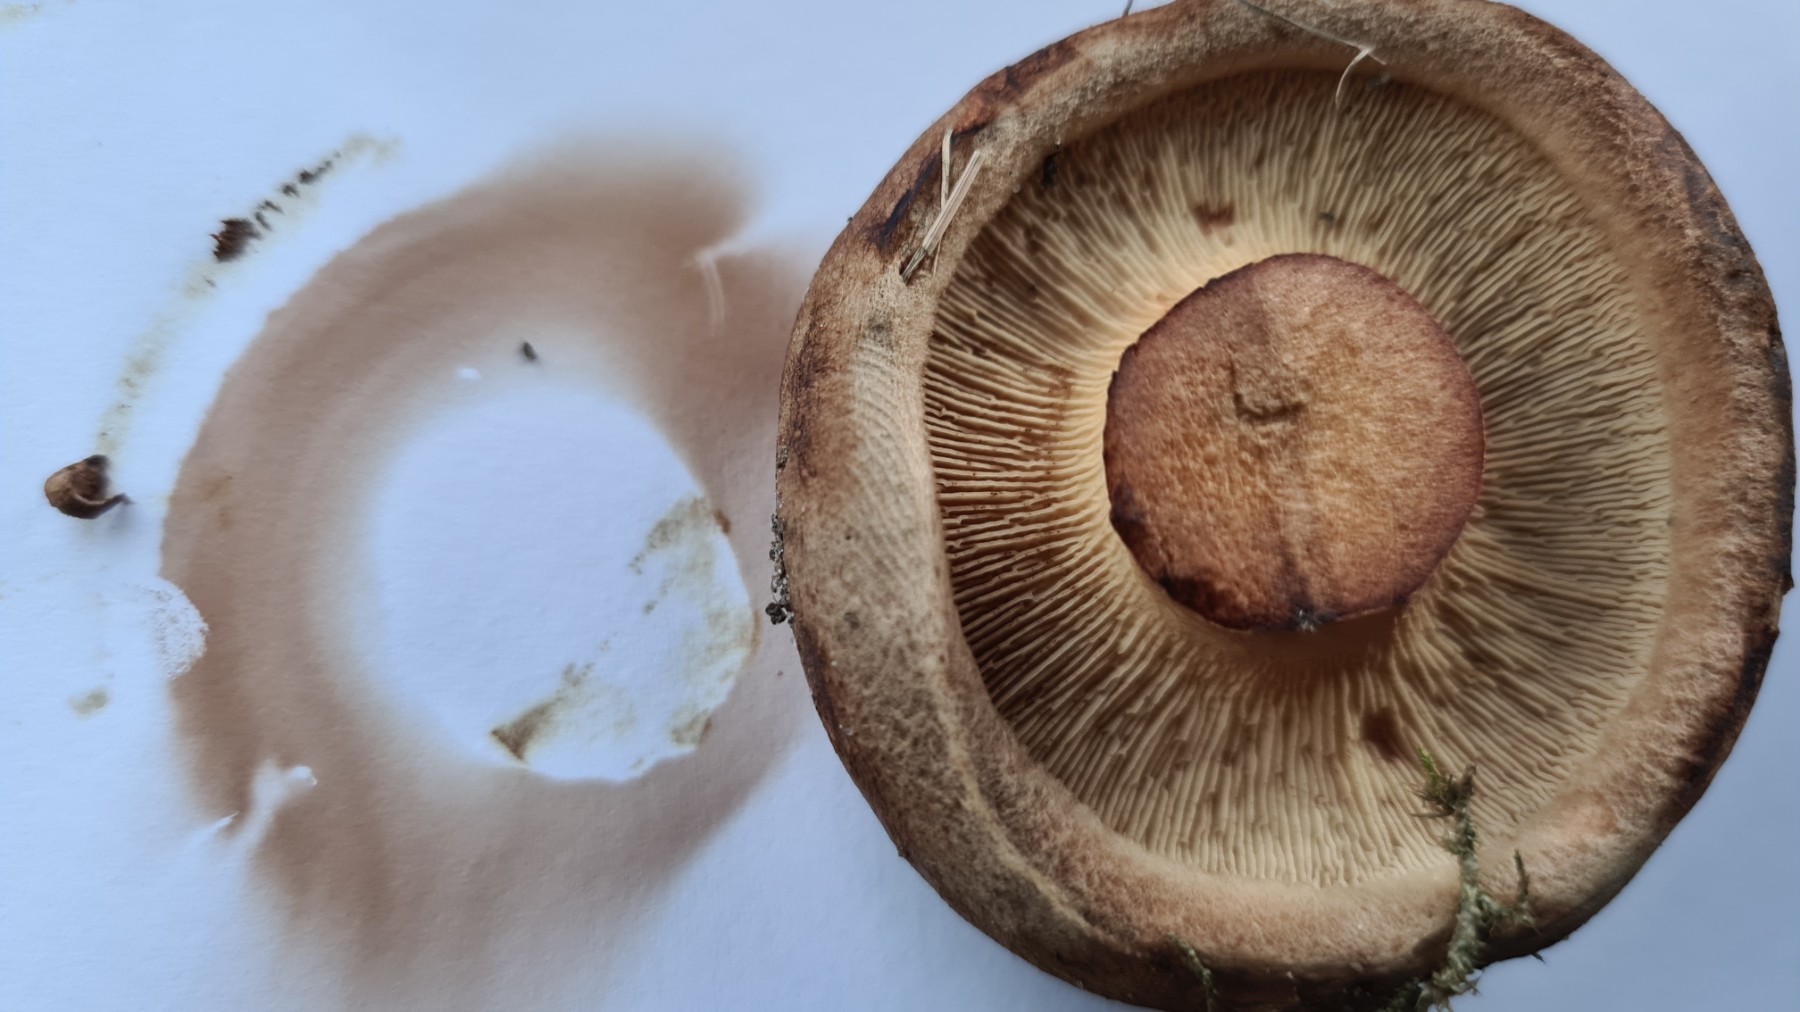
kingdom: Fungi
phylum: Basidiomycota
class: Agaricomycetes
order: Boletales
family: Paxillaceae
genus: Paxillus
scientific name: Paxillus obscurisporus
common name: mahognisporet netbladhat
